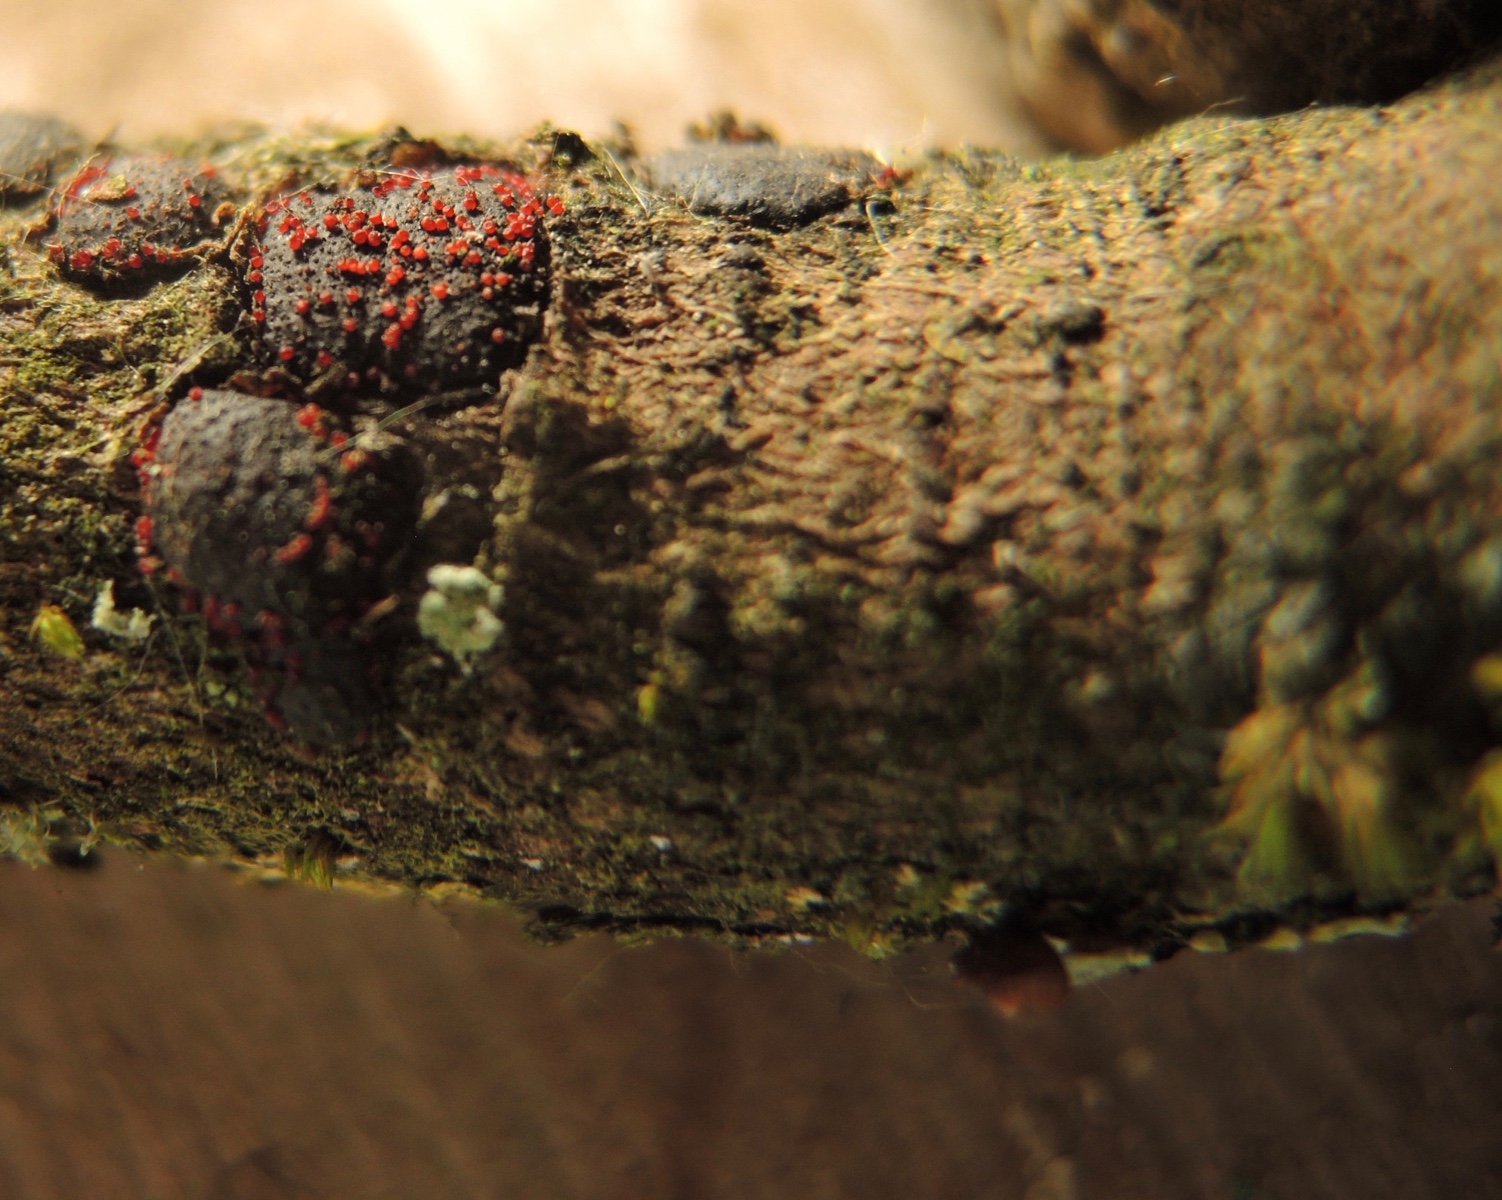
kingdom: Fungi
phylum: Ascomycota
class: Sordariomycetes
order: Hypocreales
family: Nectriaceae
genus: Dialonectria
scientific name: Dialonectria episphaeria
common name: kulskorpe-cinnobersvamp
